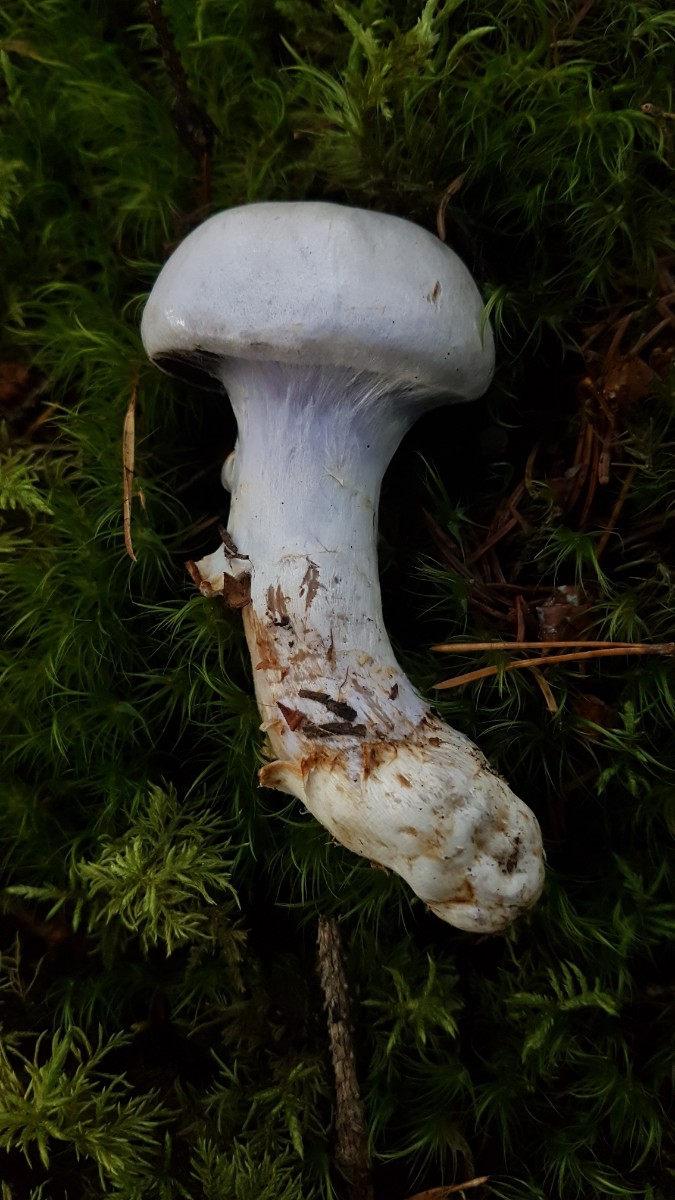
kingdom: Fungi
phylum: Basidiomycota
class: Agaricomycetes
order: Agaricales
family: Cortinariaceae
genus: Cortinarius
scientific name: Cortinarius camphoratus
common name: stinkende slørhat
